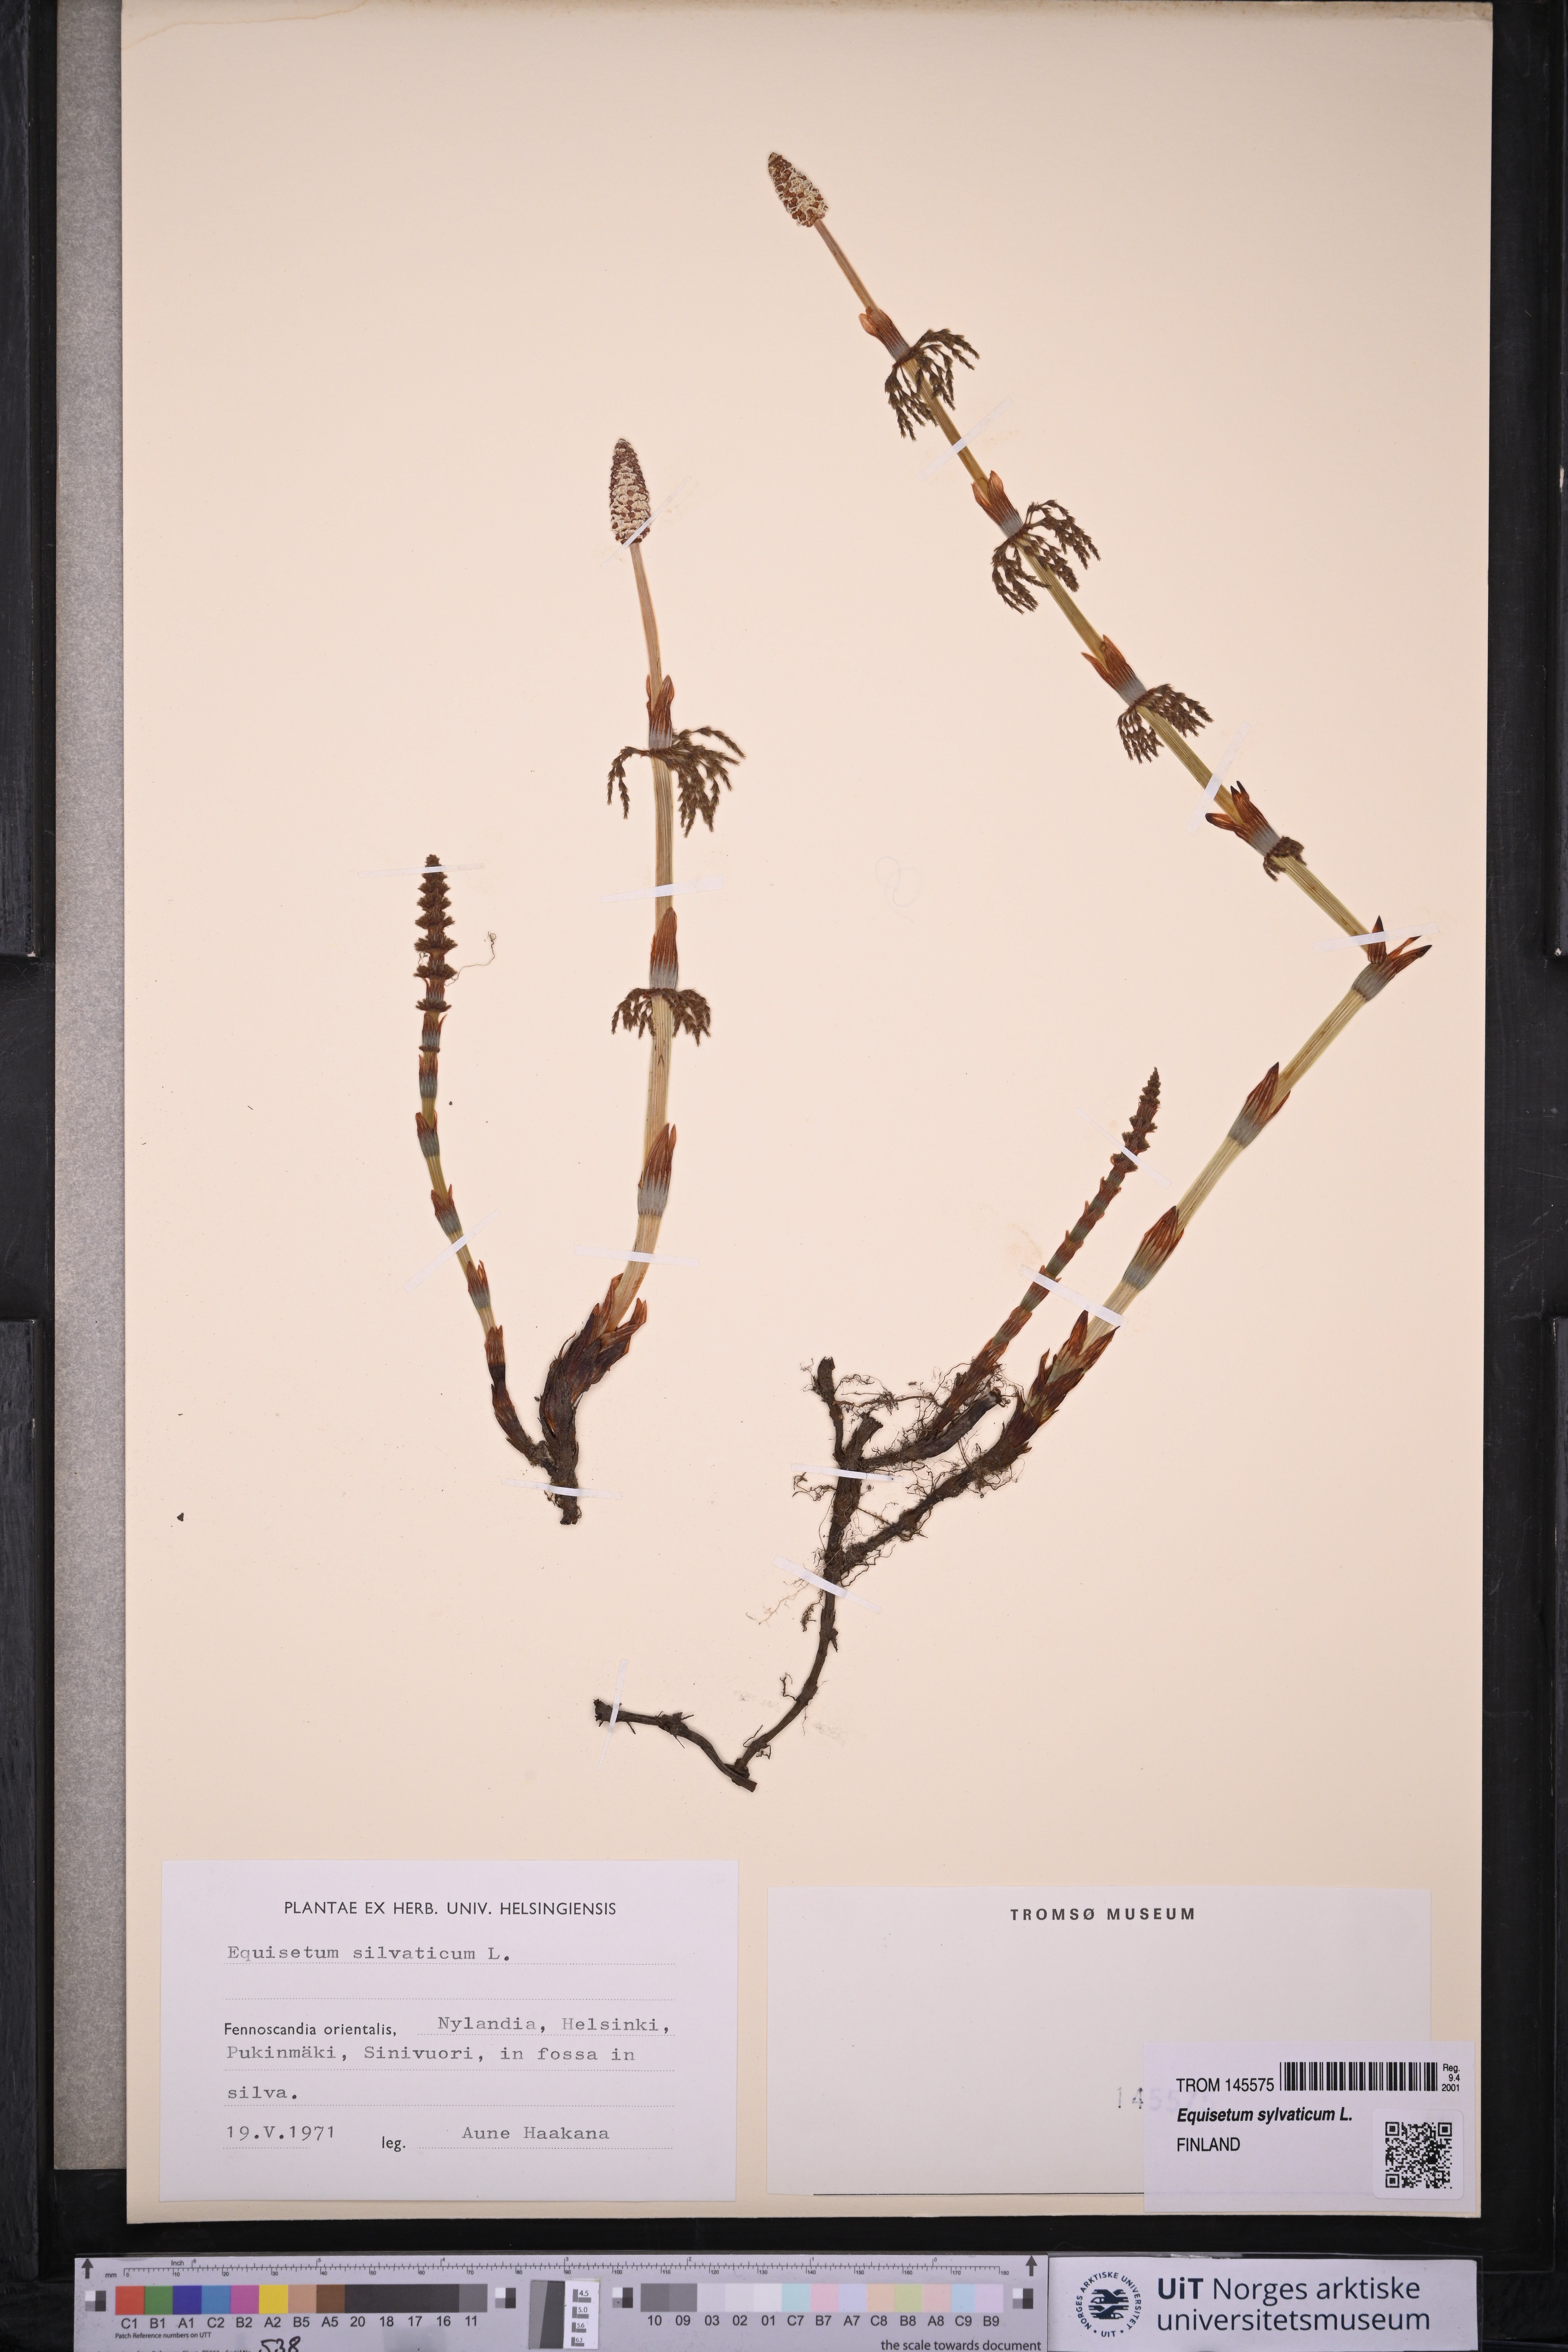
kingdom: Plantae
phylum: Tracheophyta
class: Polypodiopsida
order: Equisetales
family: Equisetaceae
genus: Equisetum
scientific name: Equisetum sylvaticum
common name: Wood horsetail
